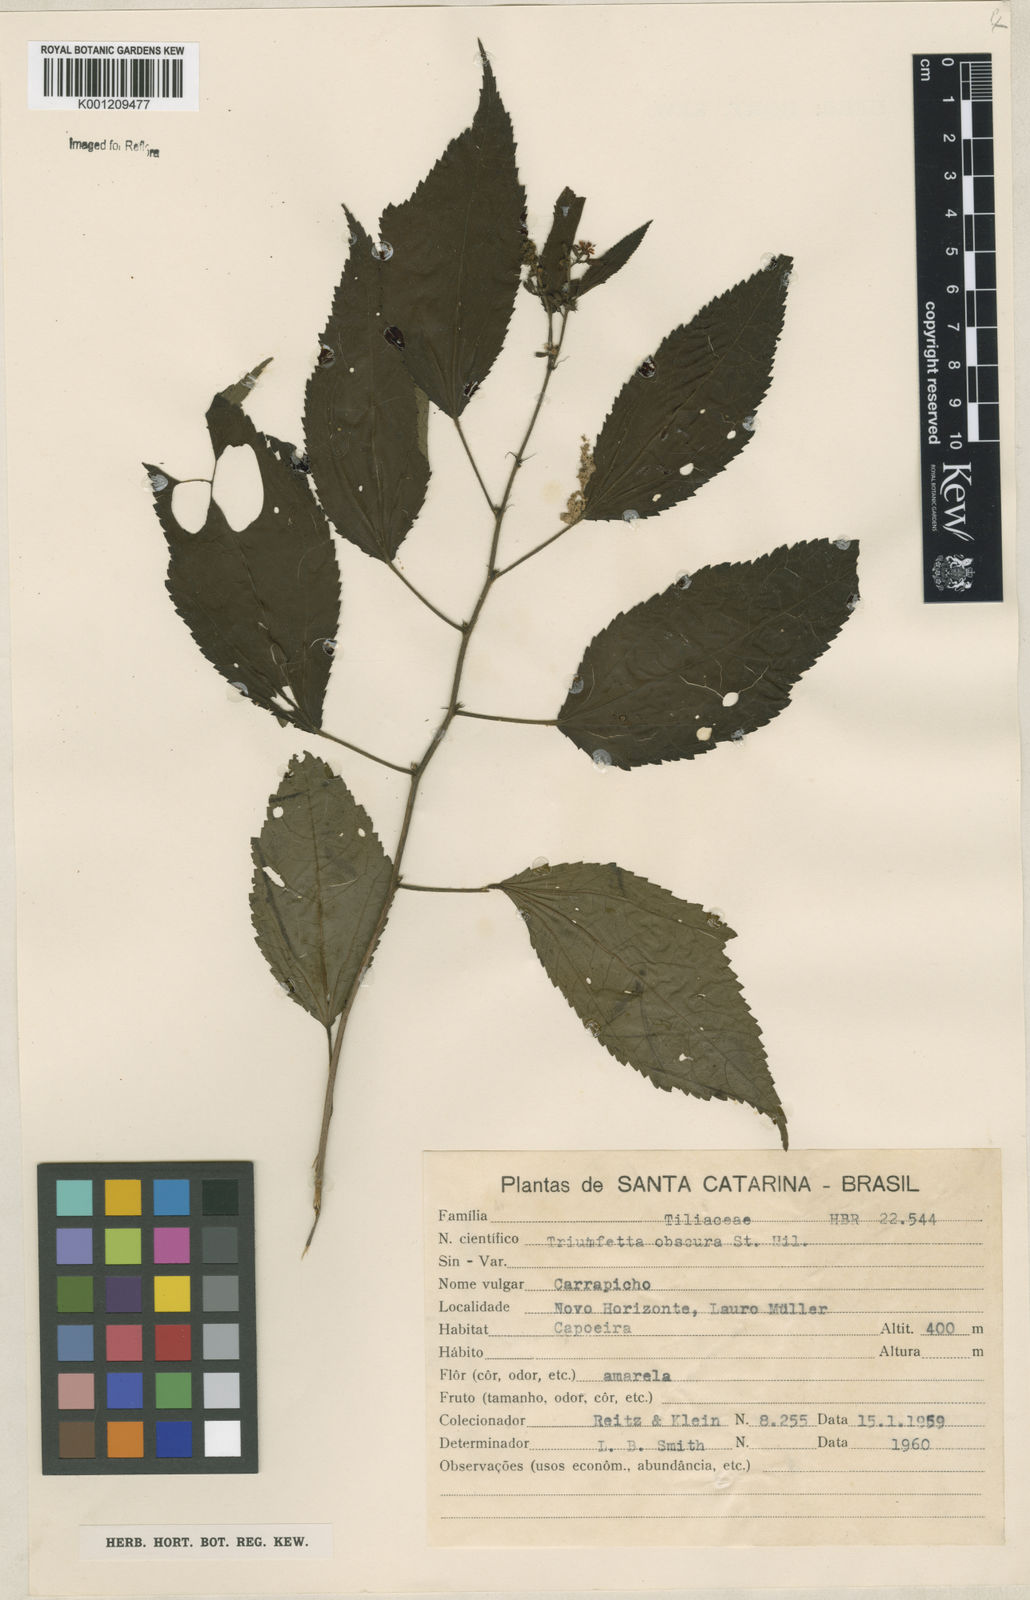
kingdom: Plantae
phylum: Tracheophyta
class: Magnoliopsida
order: Malvales
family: Malvaceae
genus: Triumfetta
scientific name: Triumfetta obscura
